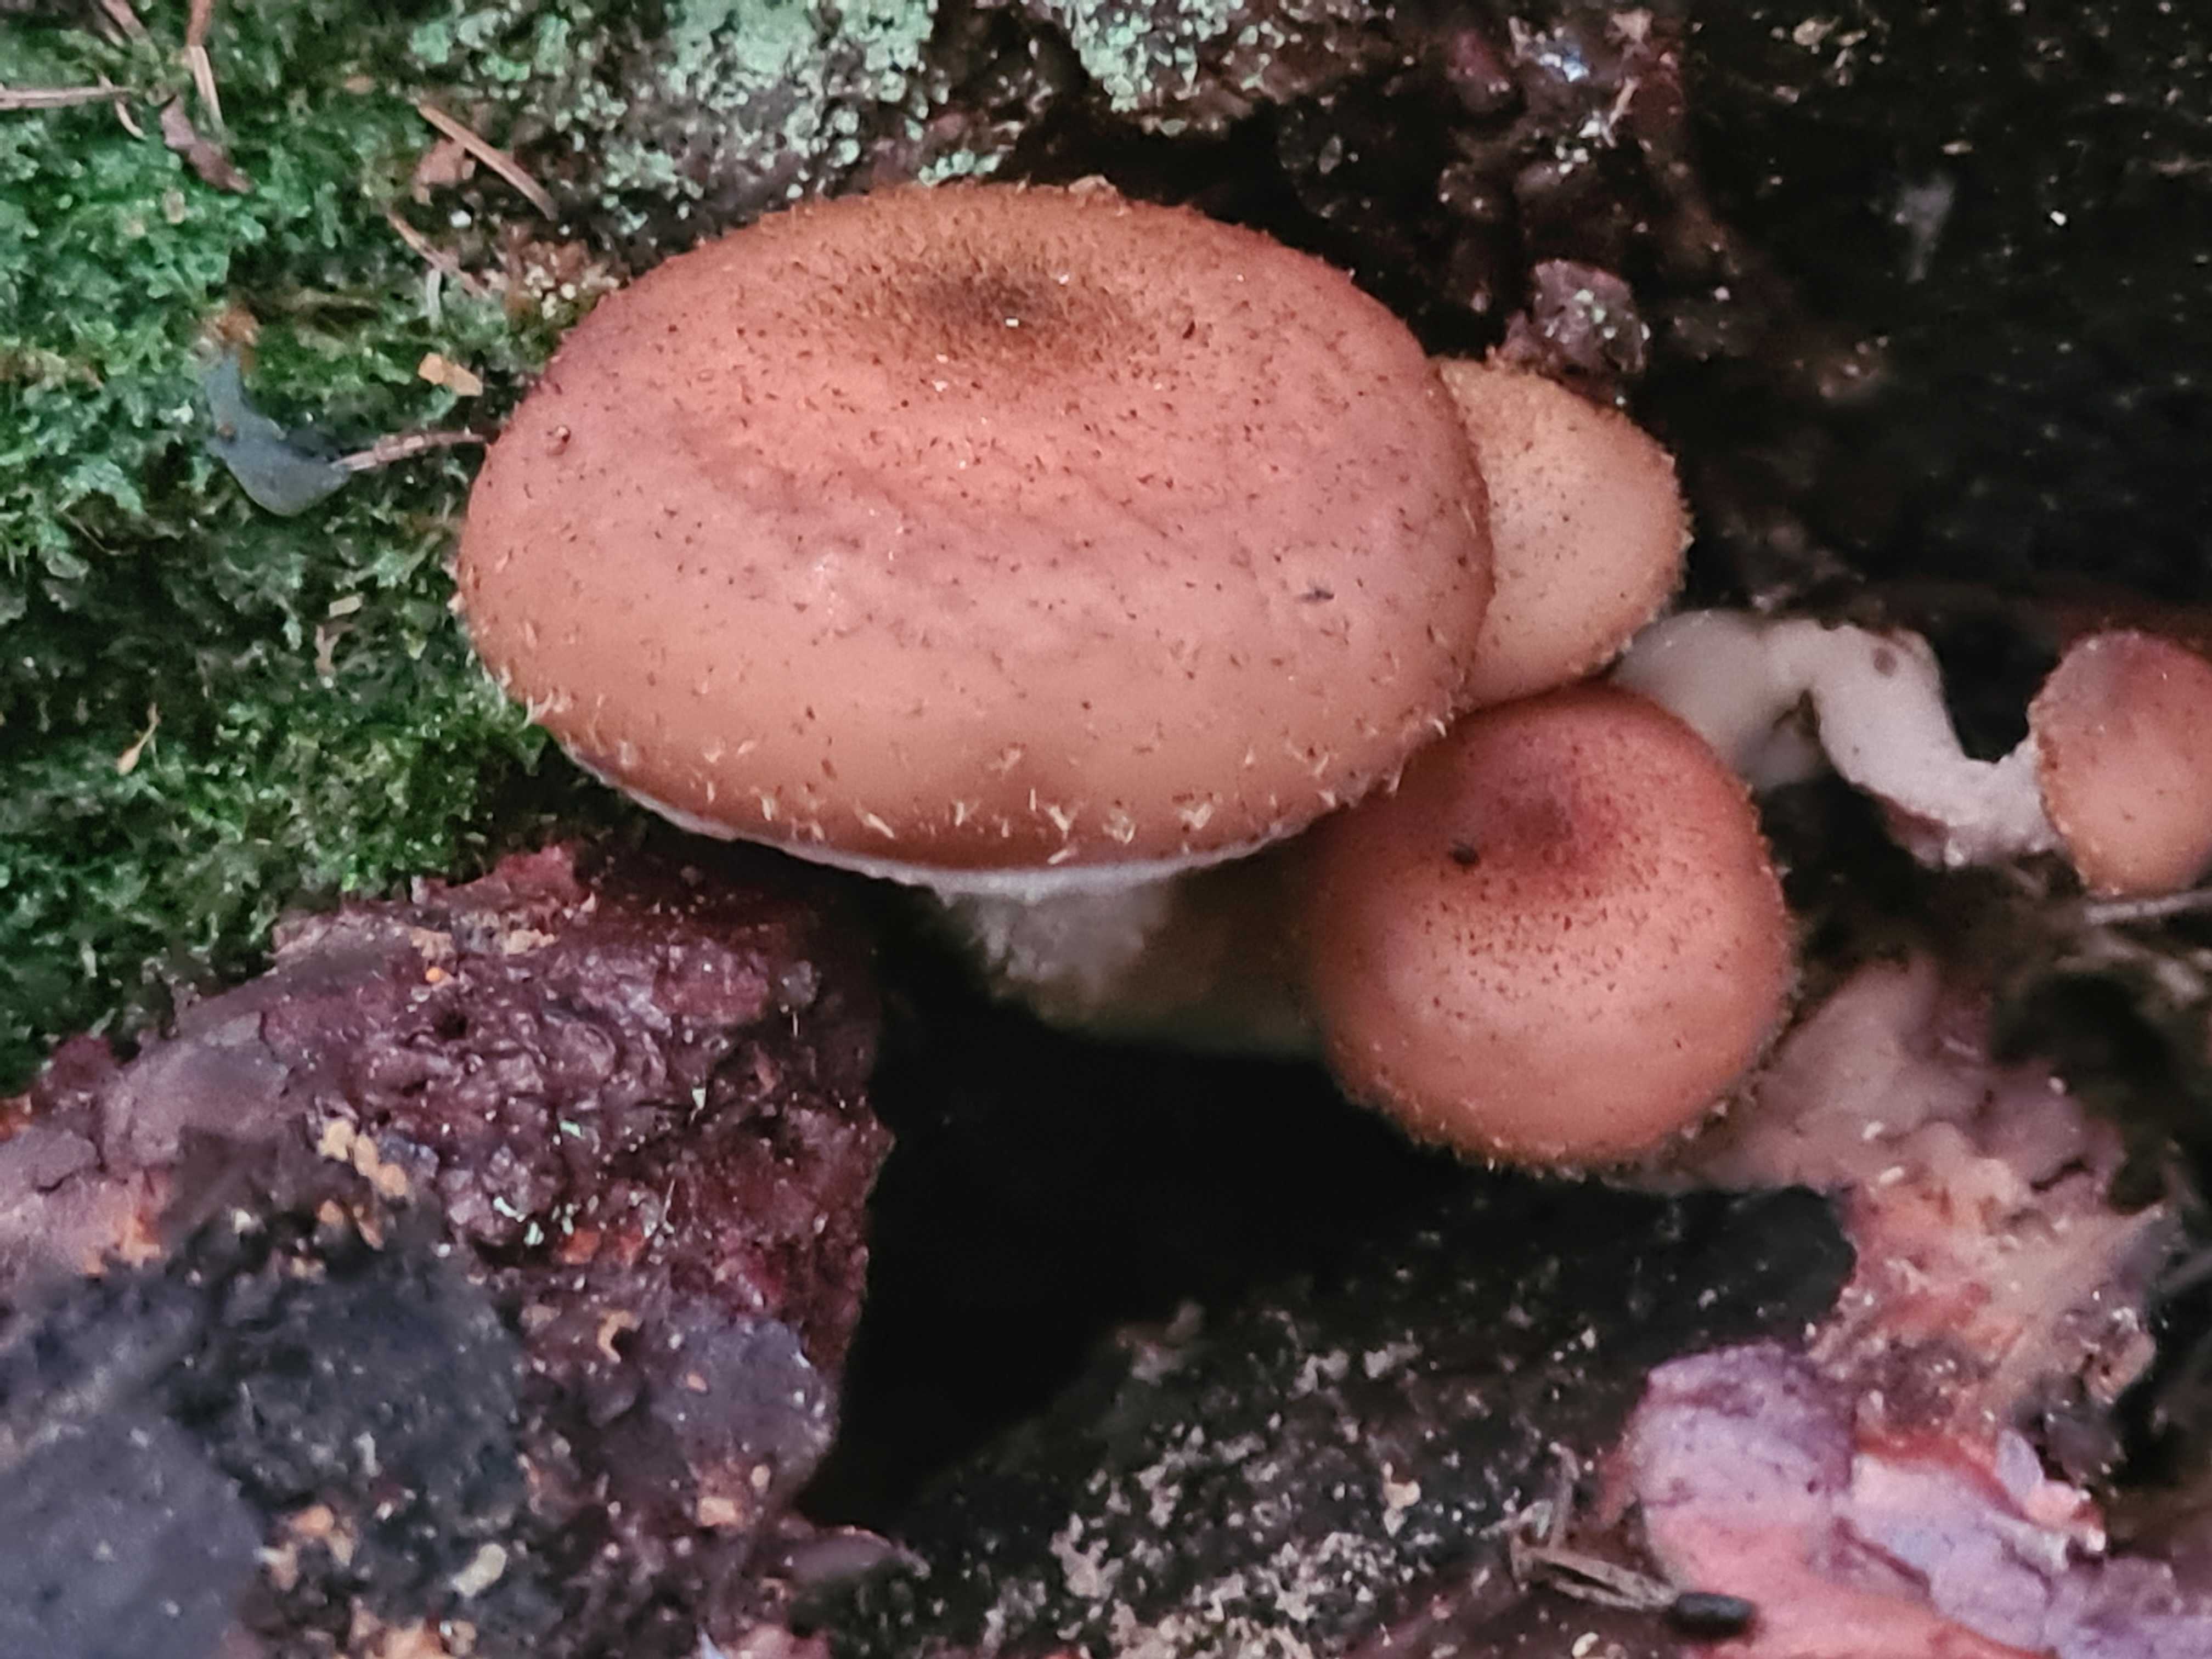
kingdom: Fungi
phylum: Basidiomycota
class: Agaricomycetes
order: Agaricales
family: Physalacriaceae
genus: Armillaria
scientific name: Armillaria lutea
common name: køllestokket honningsvamp
